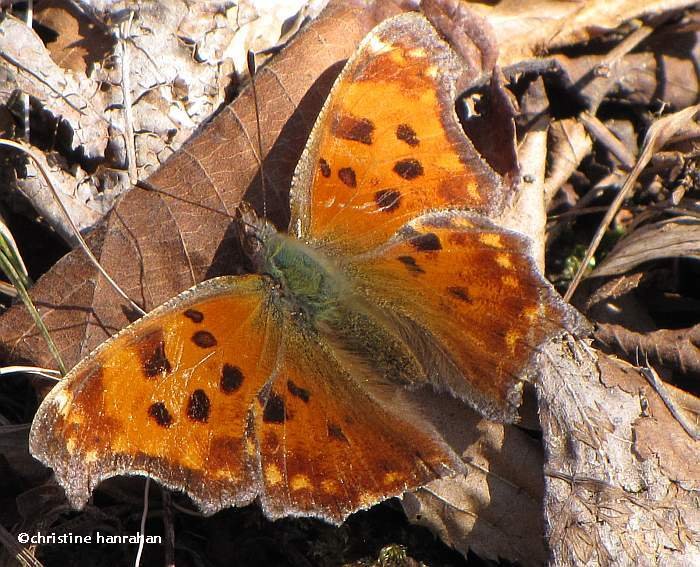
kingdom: Animalia
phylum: Arthropoda
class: Insecta
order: Lepidoptera
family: Nymphalidae
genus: Polygonia
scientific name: Polygonia comma
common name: Eastern Comma
